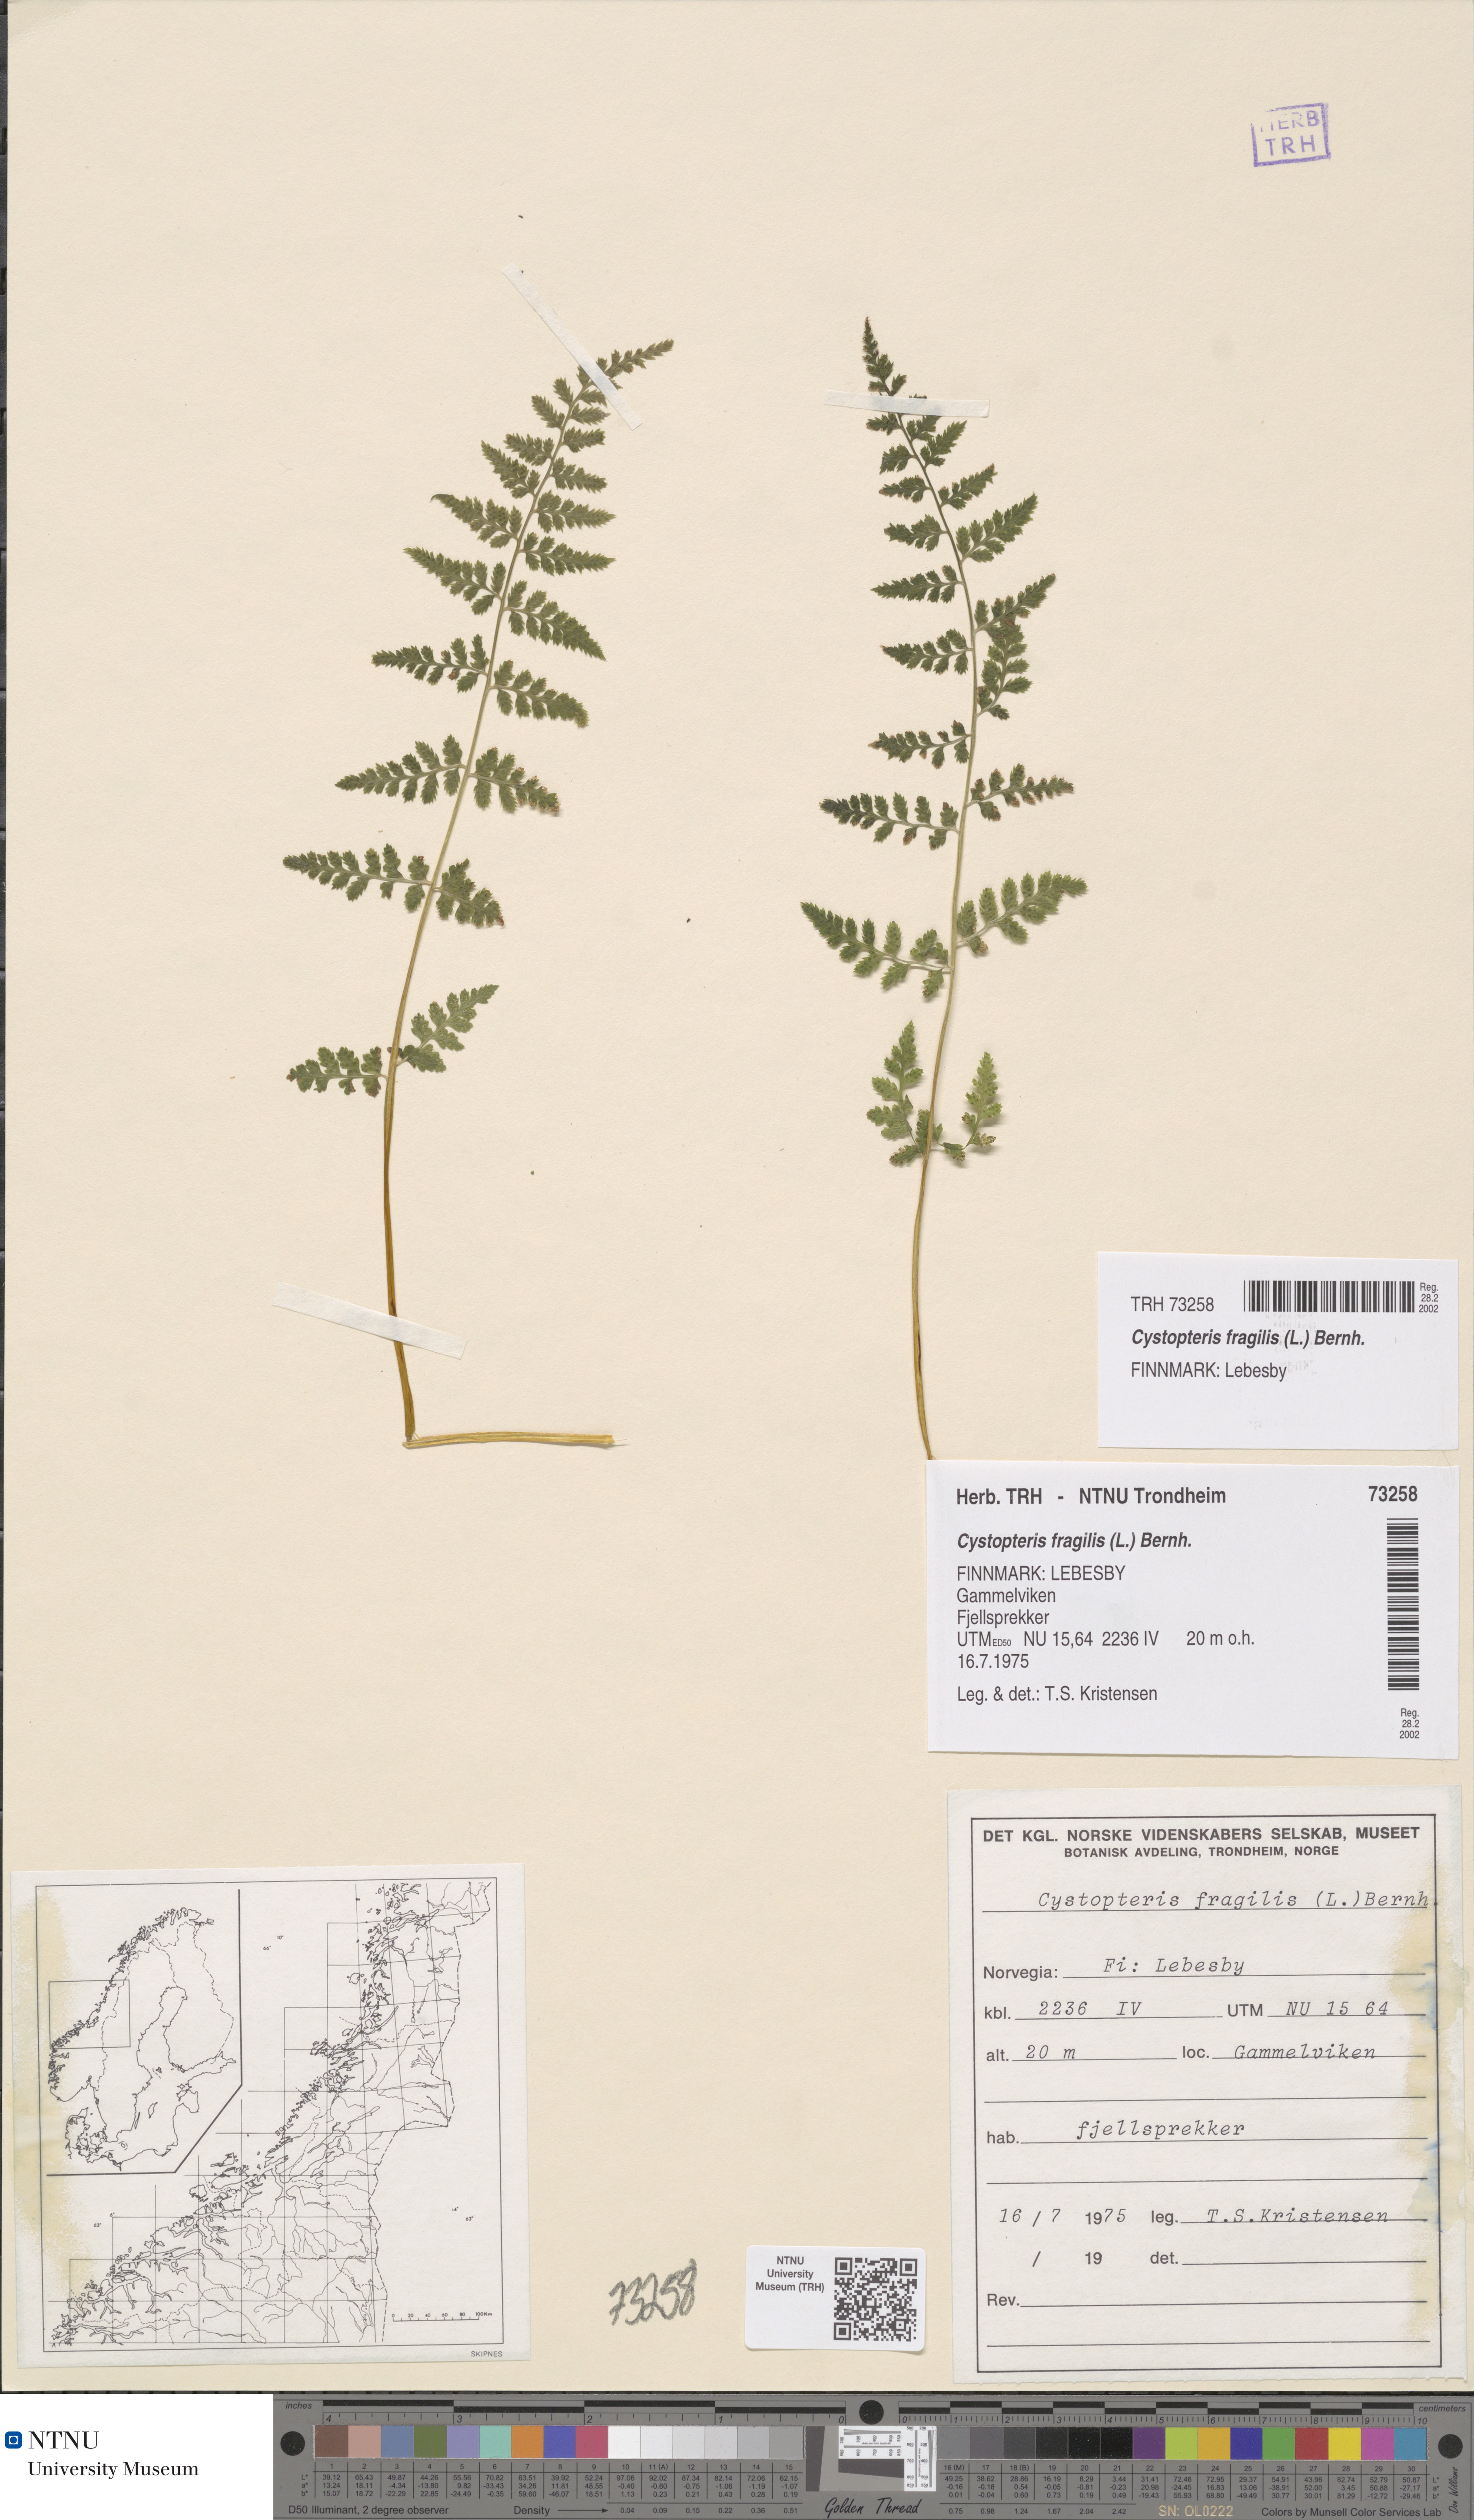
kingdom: Plantae
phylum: Tracheophyta
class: Polypodiopsida
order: Polypodiales
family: Cystopteridaceae
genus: Cystopteris
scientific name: Cystopteris fragilis
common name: Brittle bladder fern
